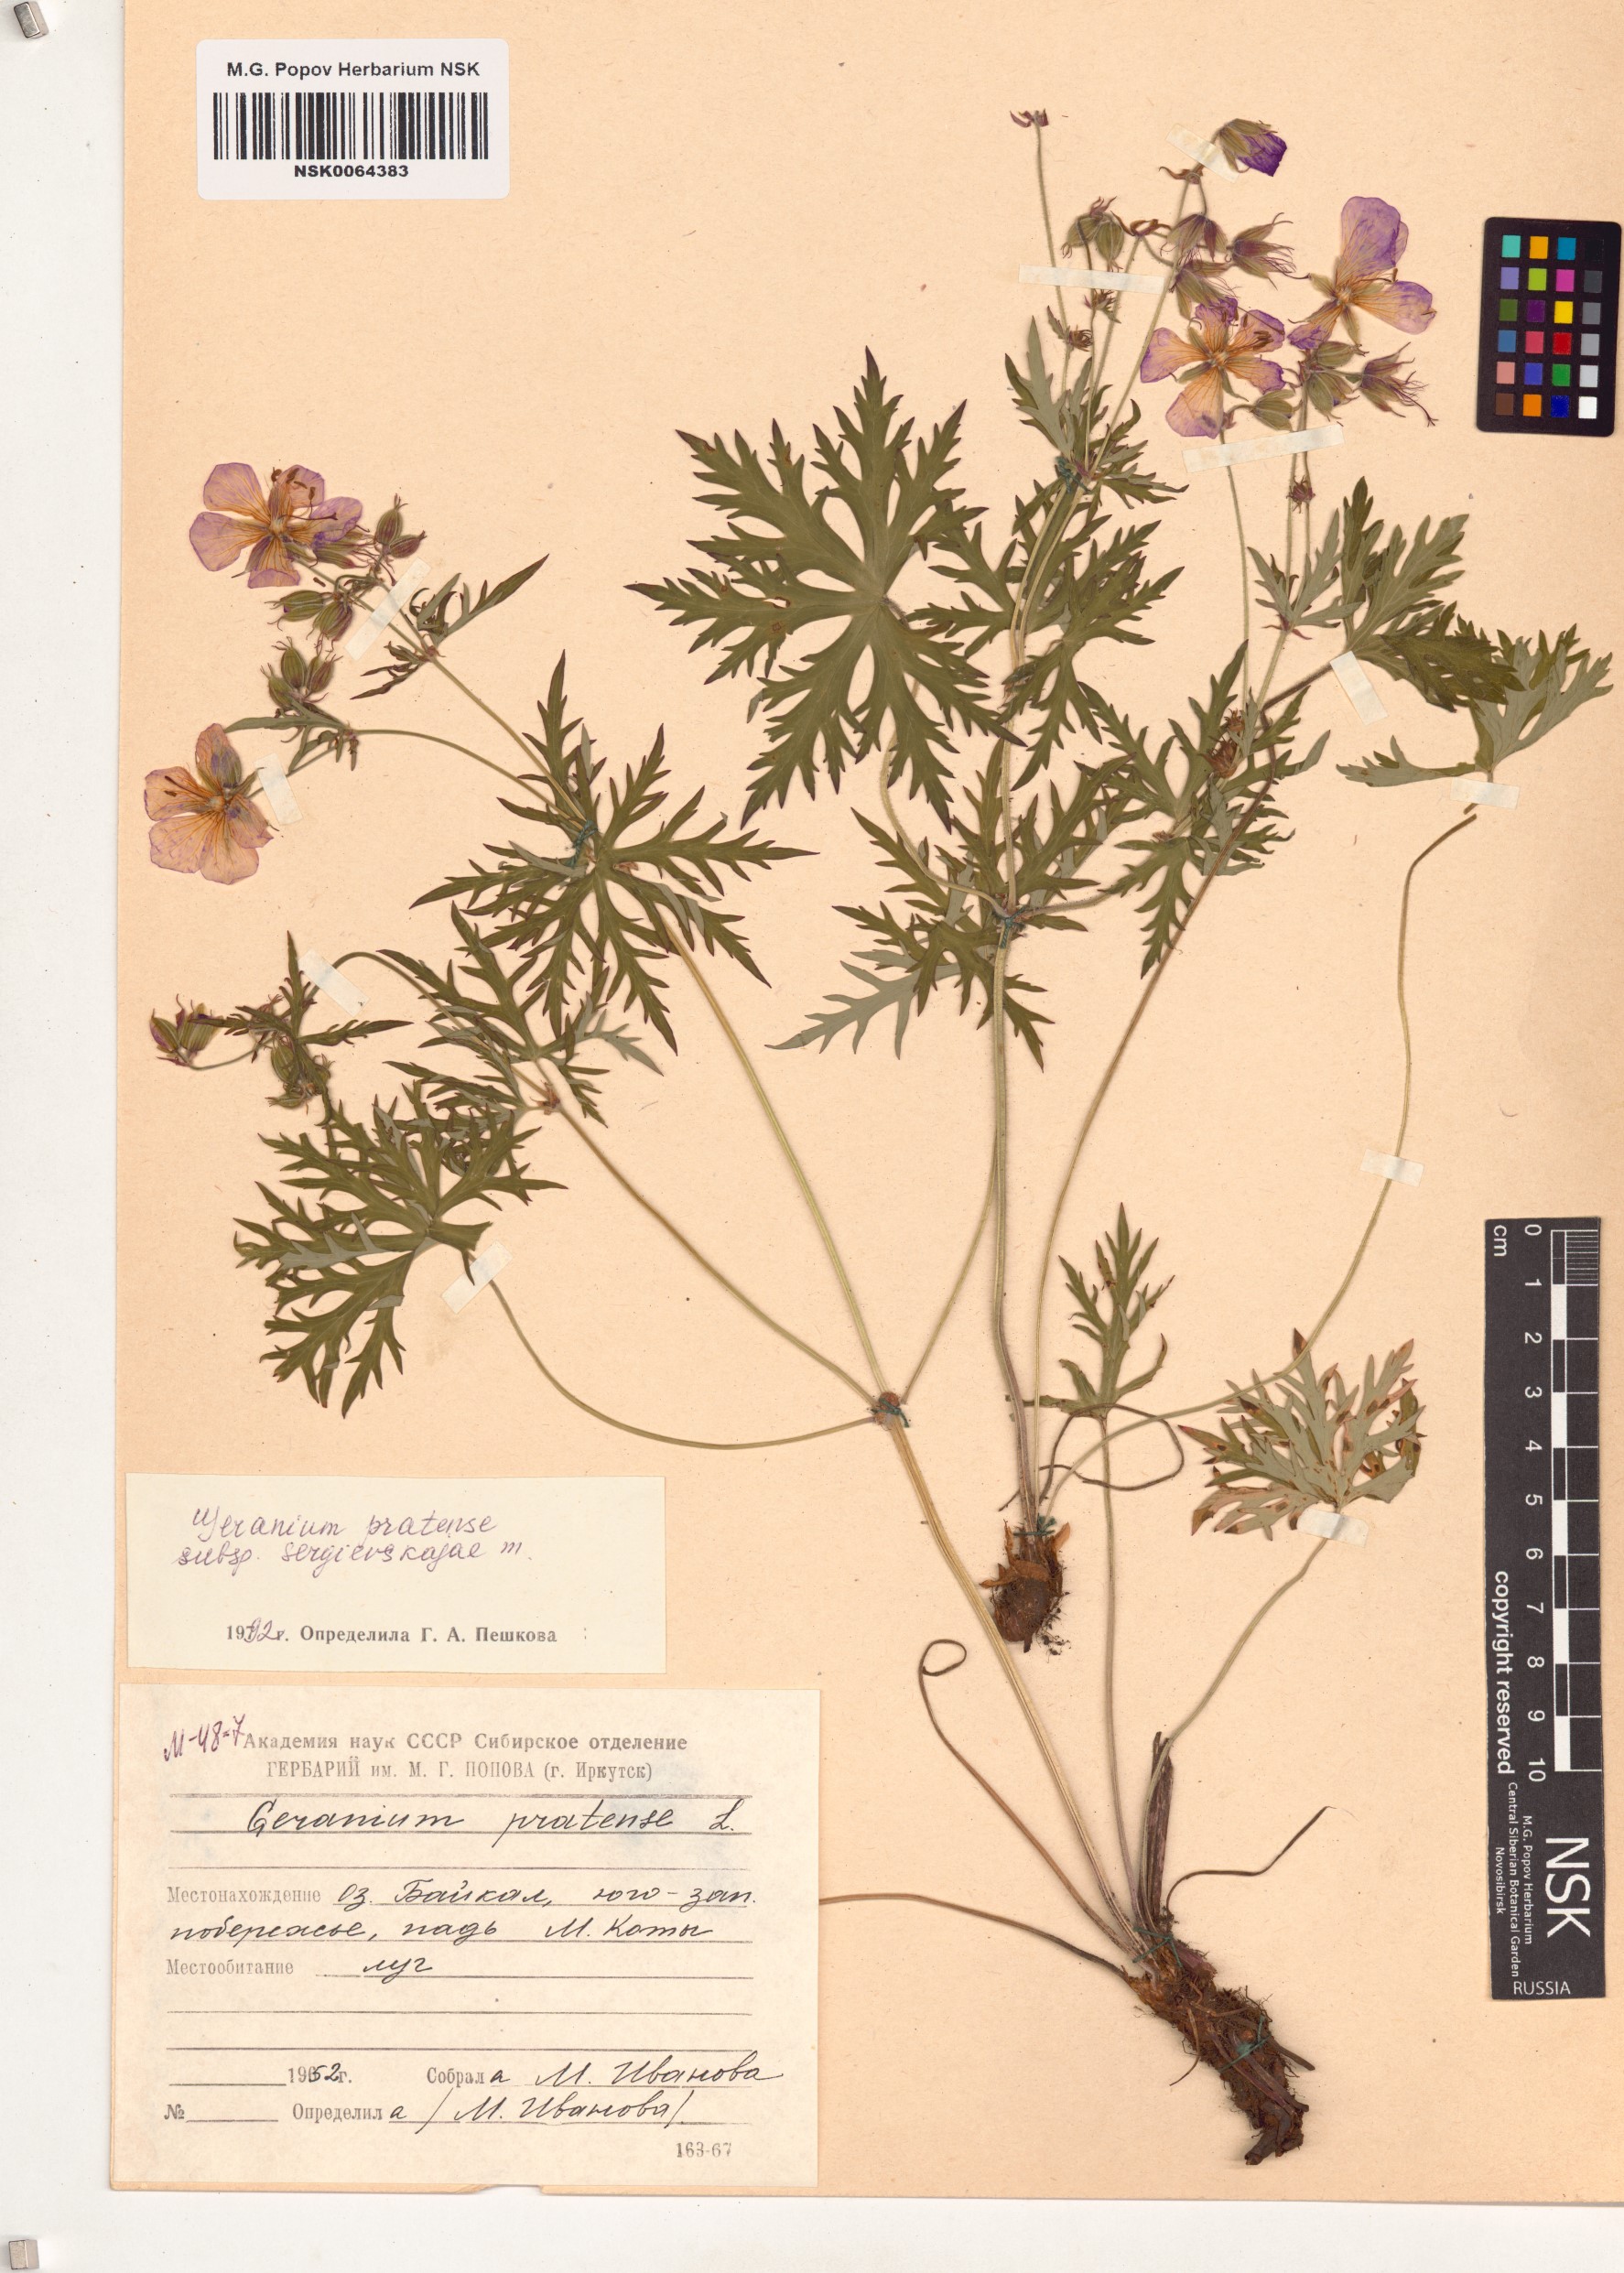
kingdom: Plantae
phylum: Tracheophyta
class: Magnoliopsida
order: Geraniales
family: Geraniaceae
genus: Geranium
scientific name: Geranium pratense
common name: Meadow crane's-bill
